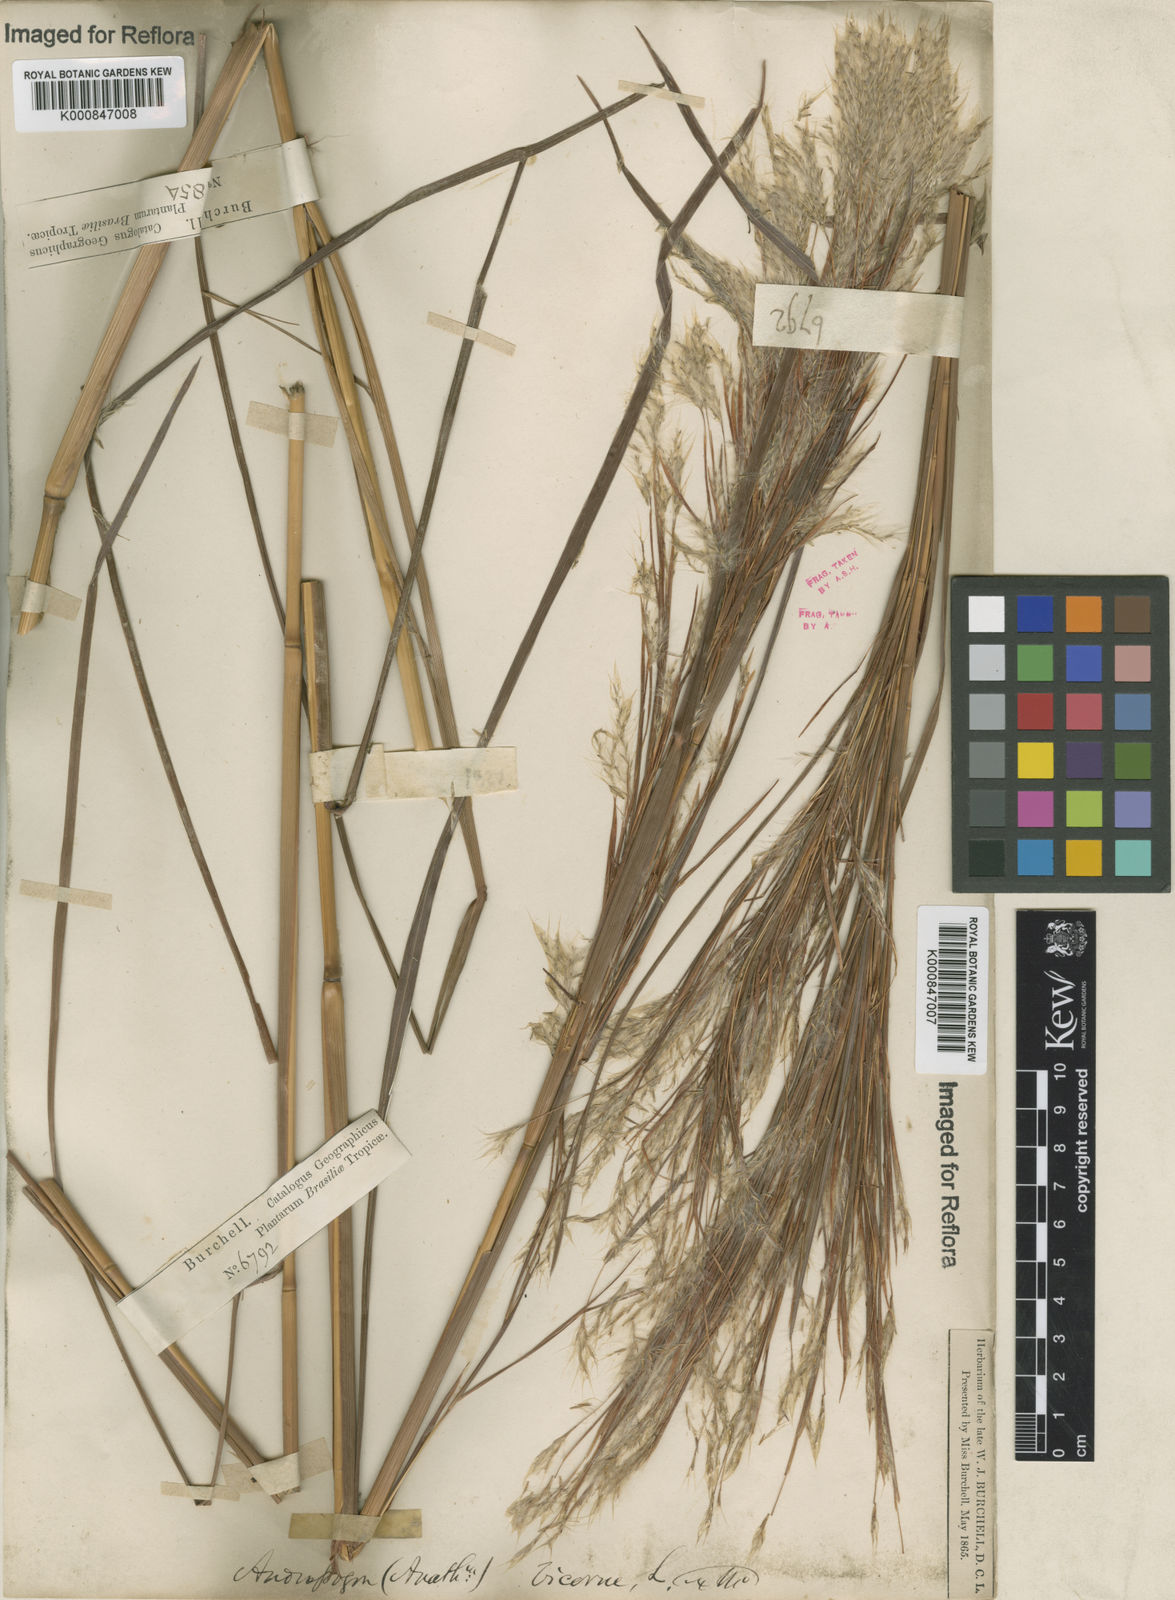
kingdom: Plantae
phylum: Tracheophyta
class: Liliopsida
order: Poales
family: Poaceae
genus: Andropogon
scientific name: Andropogon
